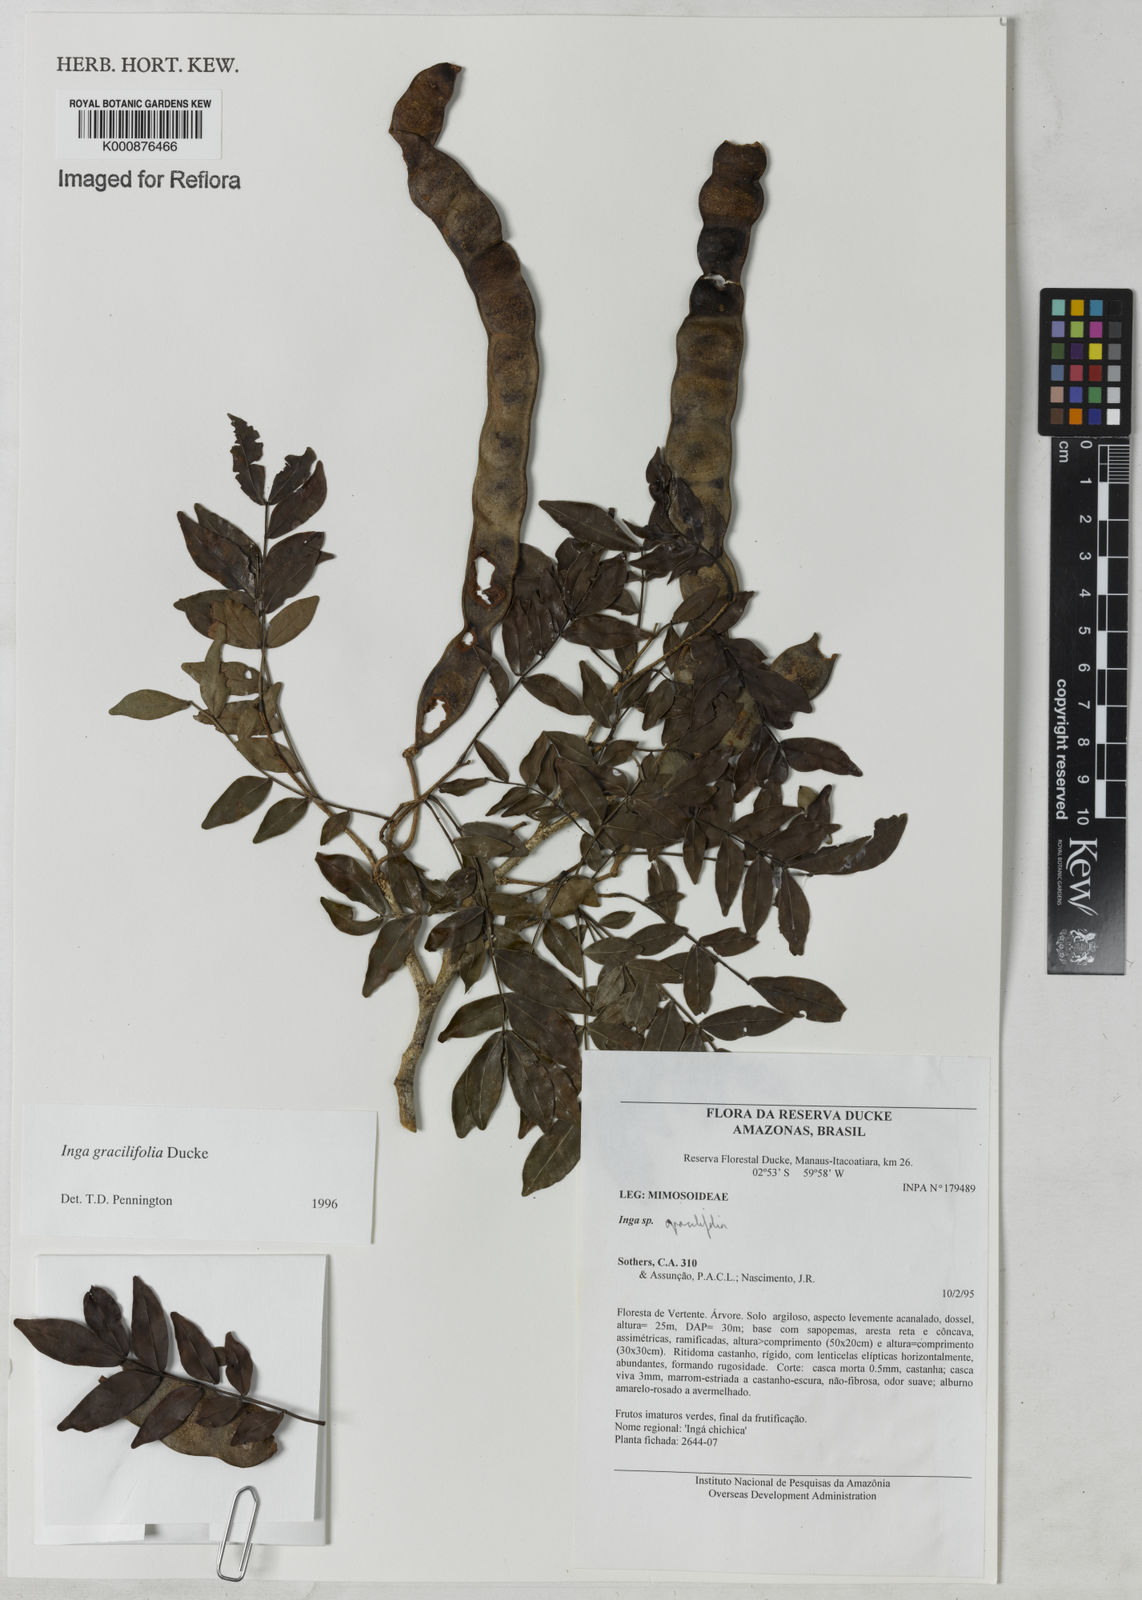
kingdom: Plantae
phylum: Tracheophyta
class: Magnoliopsida
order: Fabales
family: Fabaceae
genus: Inga
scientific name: Inga gracilifolia
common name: Gracefulleaf inga
